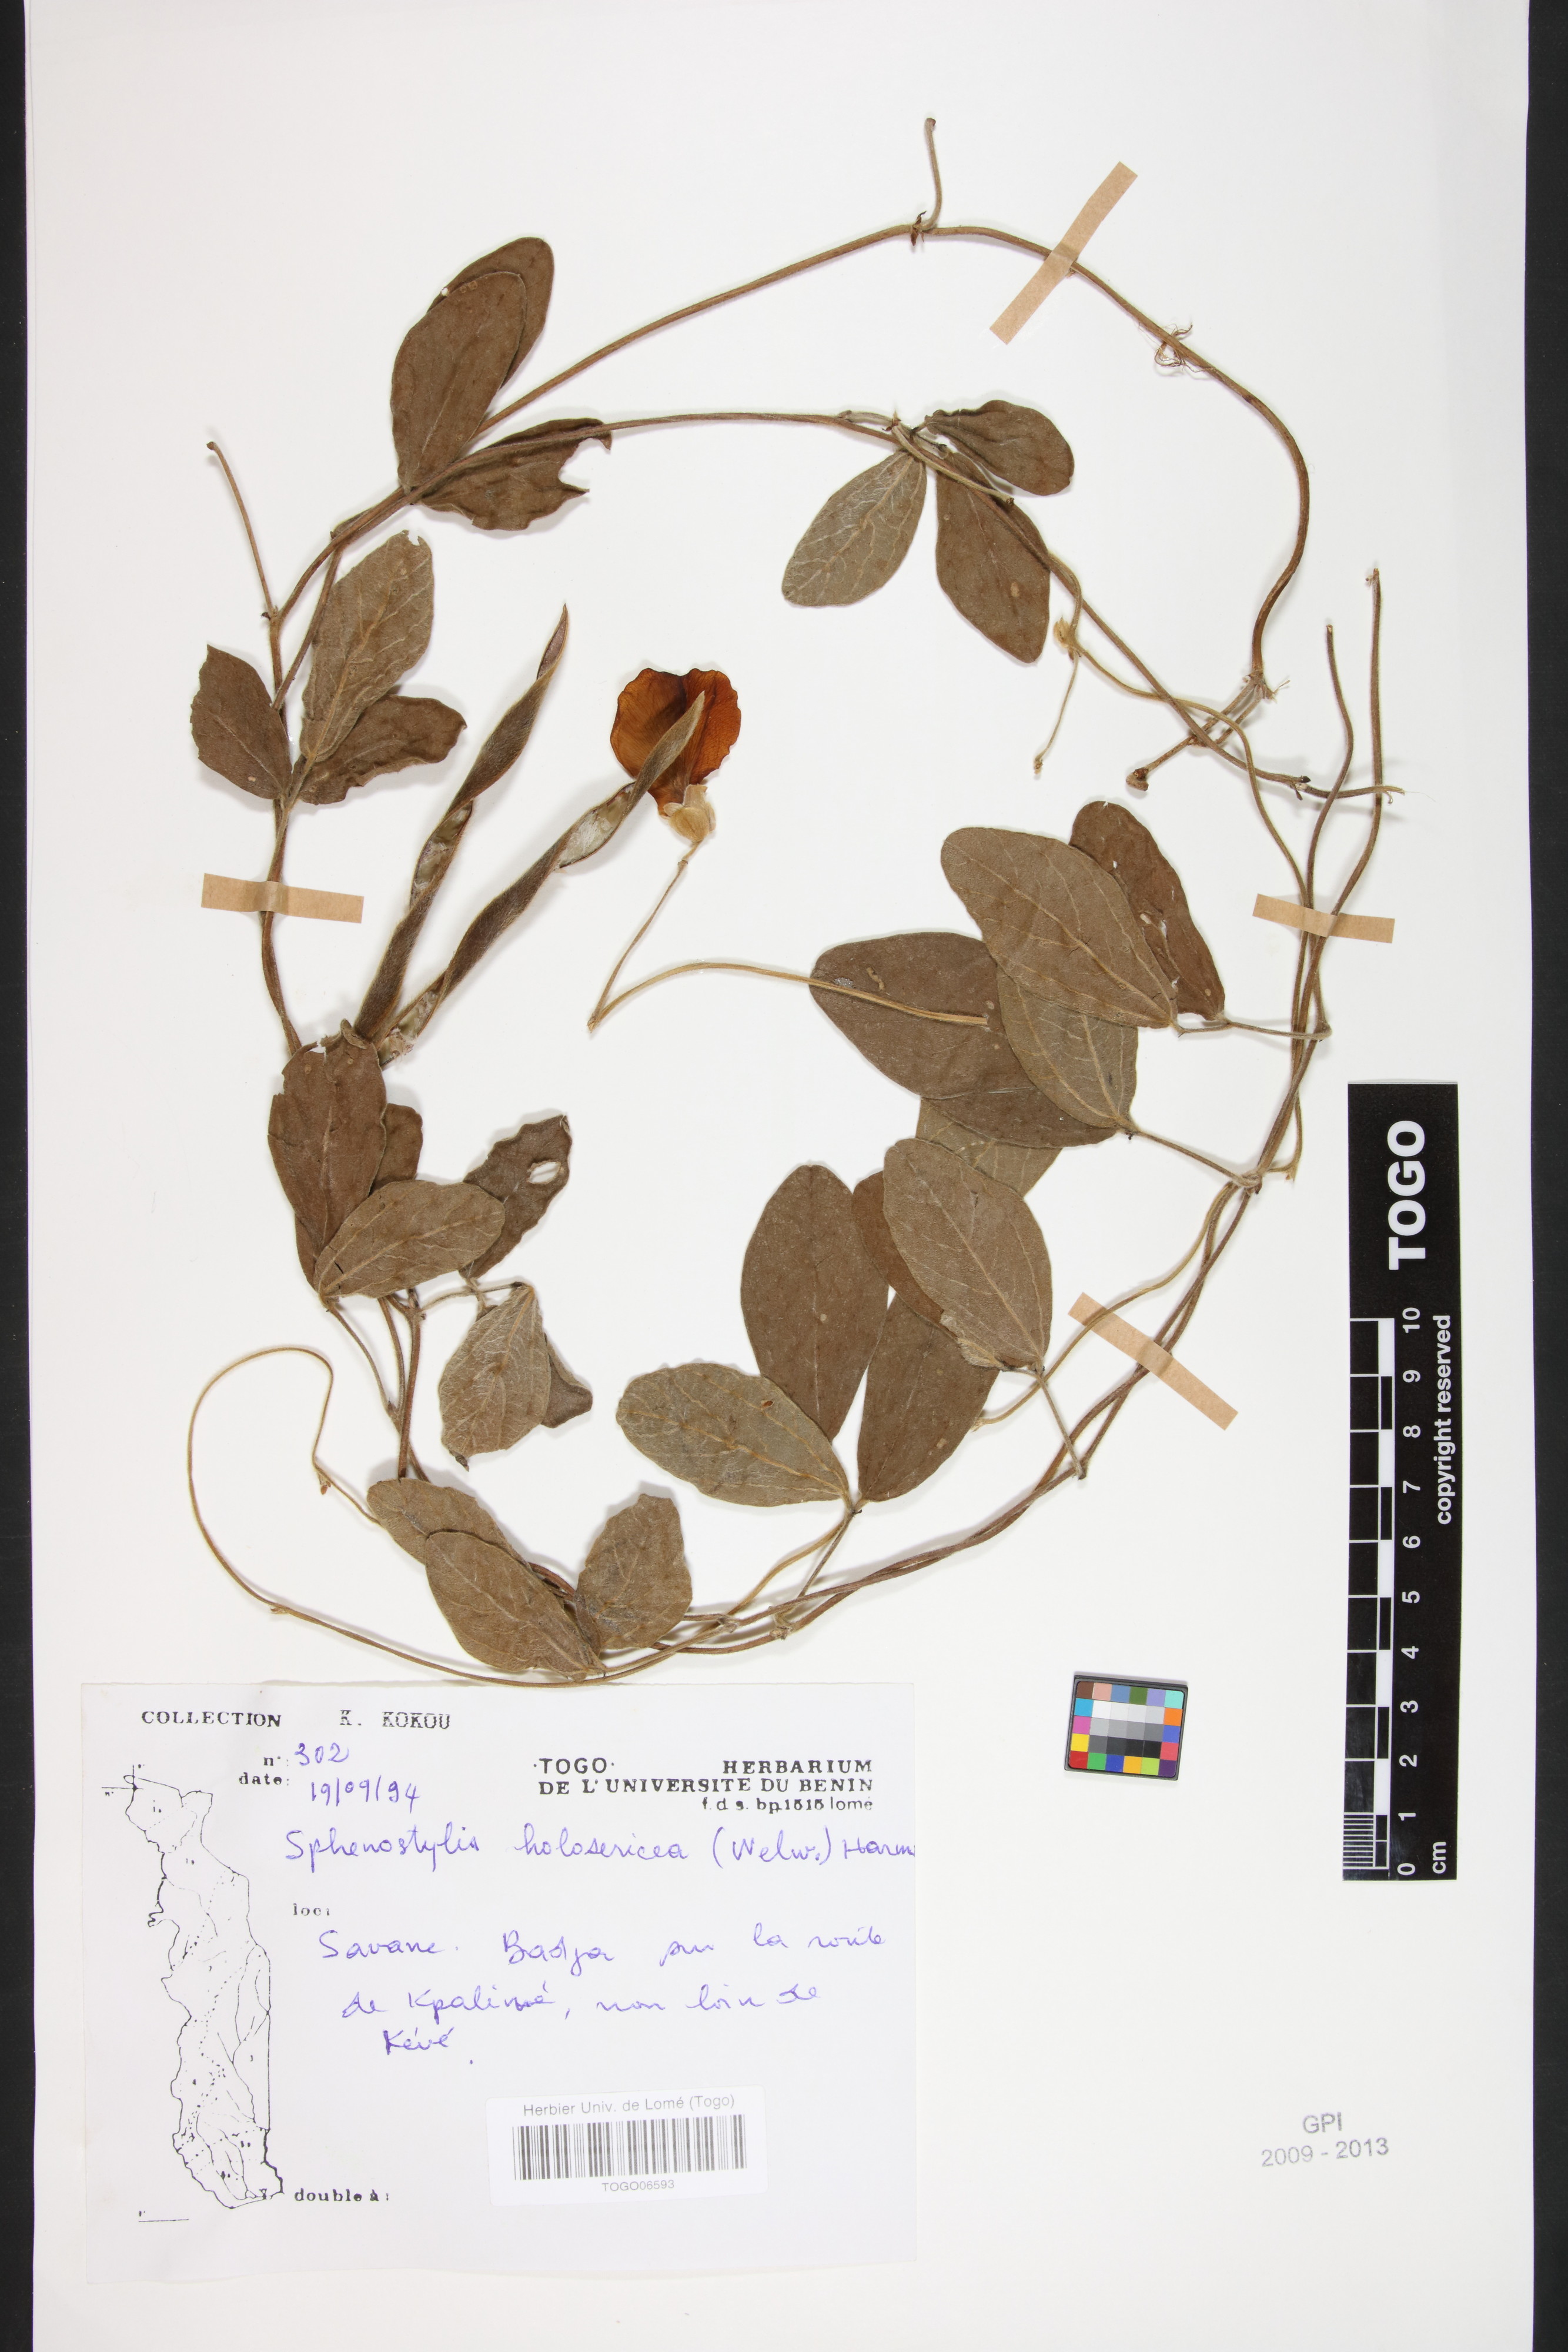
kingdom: Plantae
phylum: Tracheophyta
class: Magnoliopsida
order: Fabales
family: Fabaceae
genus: Nesphostylis
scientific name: Nesphostylis holosericea
